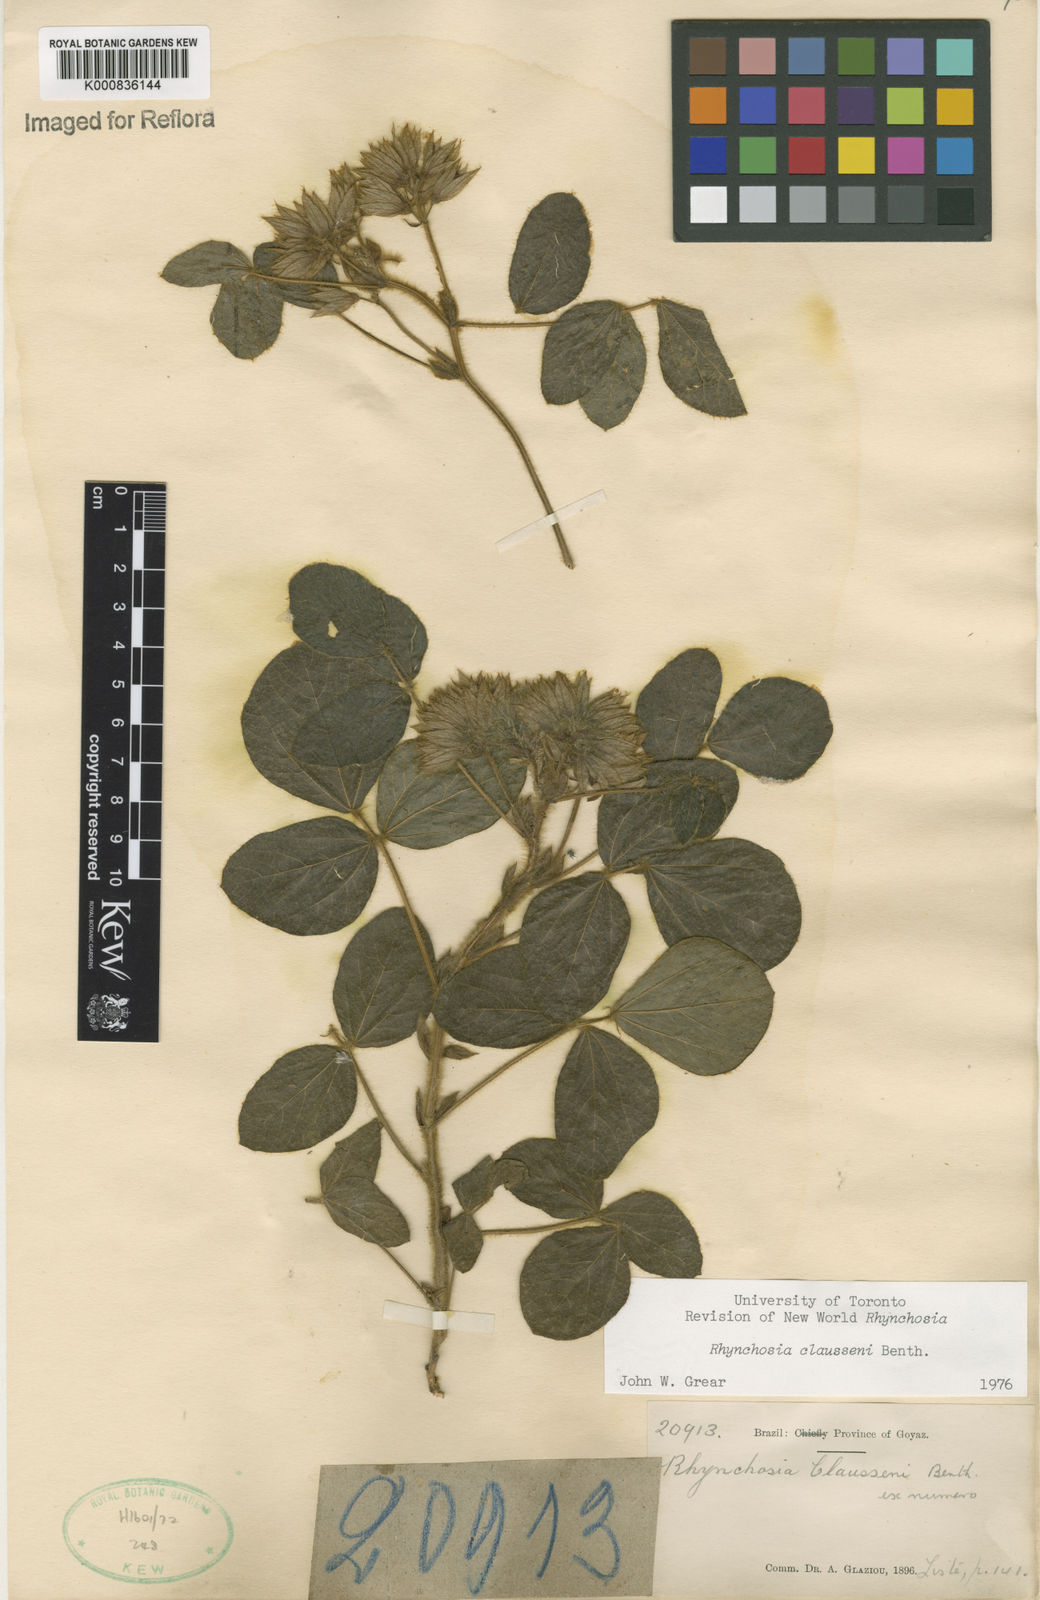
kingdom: Plantae
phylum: Tracheophyta
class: Magnoliopsida
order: Fabales
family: Fabaceae
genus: Rhynchosia
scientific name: Rhynchosia claussenii
